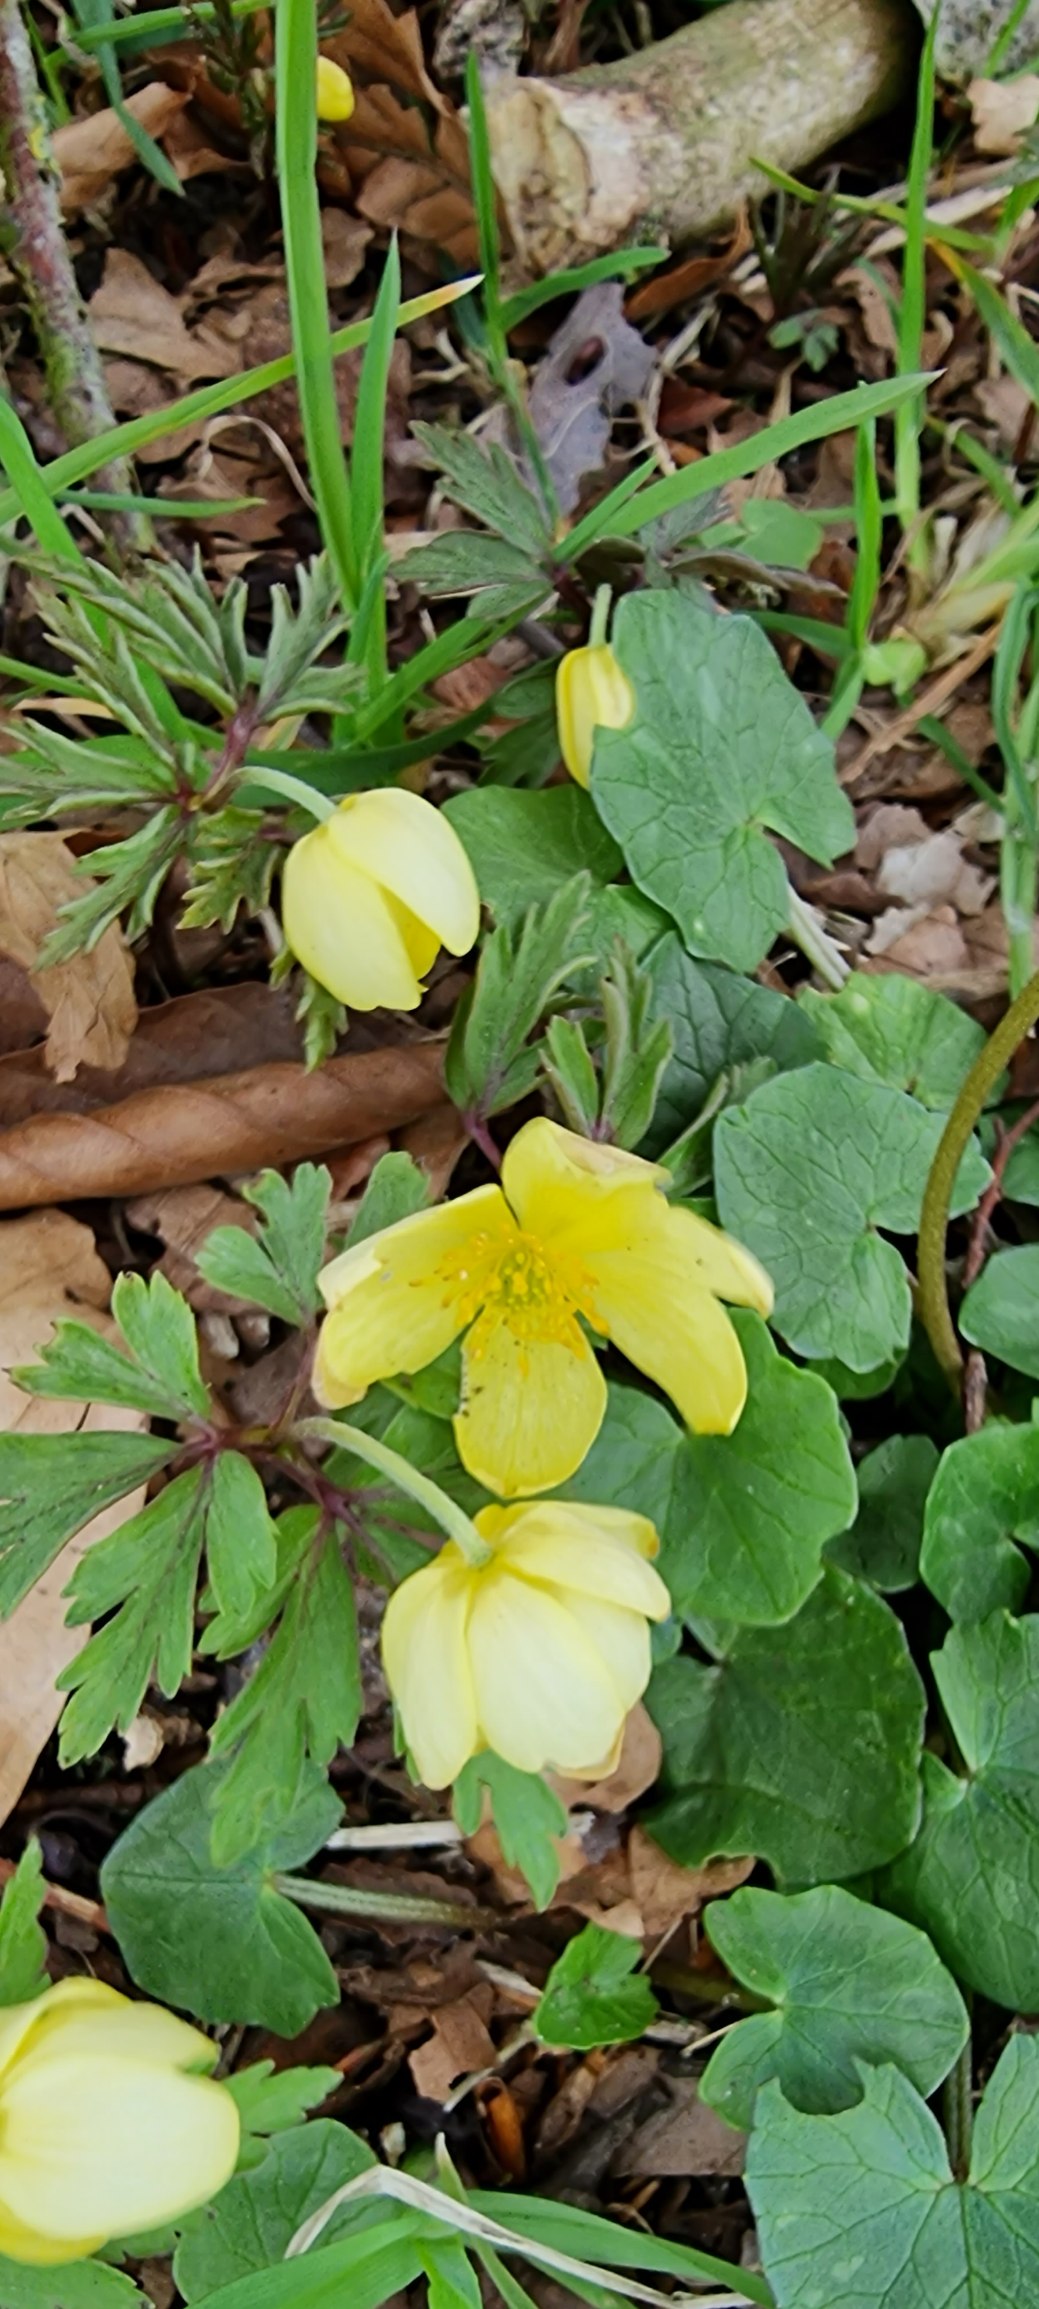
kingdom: Plantae
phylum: Tracheophyta
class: Magnoliopsida
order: Ranunculales
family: Ranunculaceae
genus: Anemone
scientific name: Anemone
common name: Svovlgul anemone
